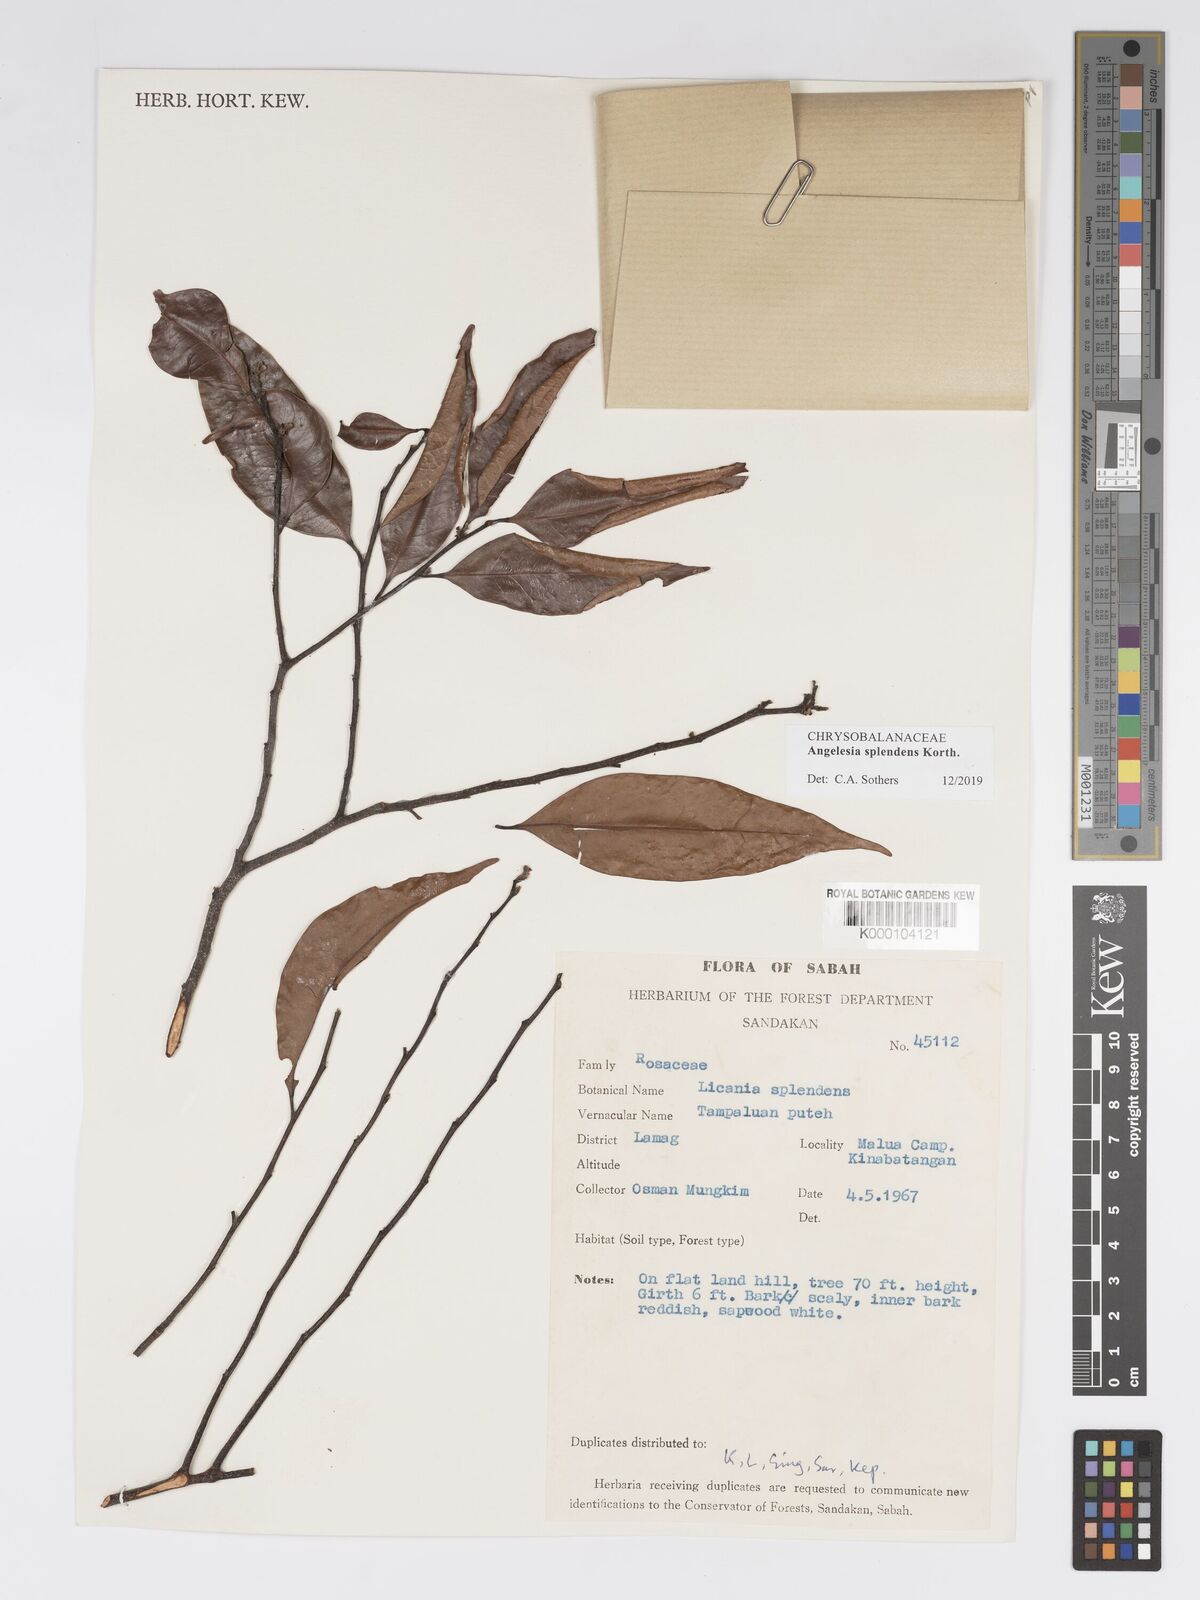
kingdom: Plantae
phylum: Tracheophyta
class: Magnoliopsida
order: Malpighiales
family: Chrysobalanaceae
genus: Angelesia
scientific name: Angelesia splendens
